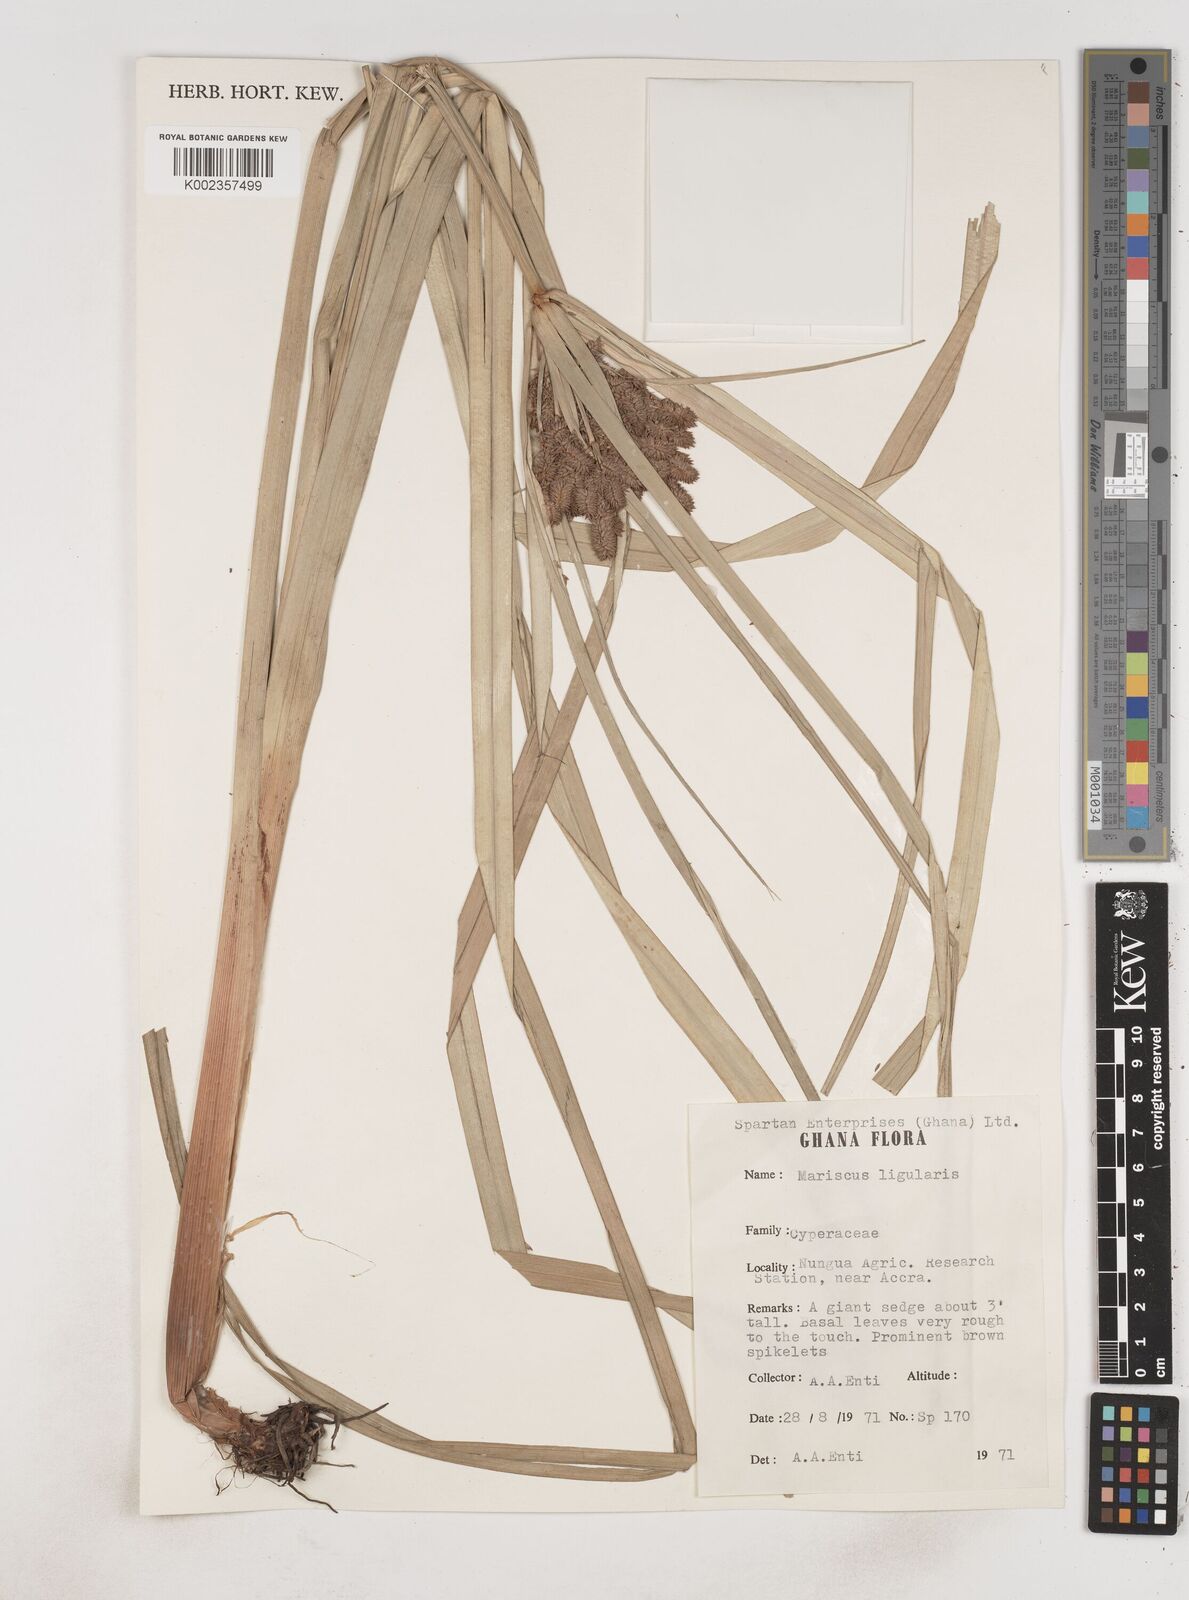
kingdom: Plantae
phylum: Tracheophyta
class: Liliopsida
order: Poales
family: Cyperaceae
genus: Cyperus
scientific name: Cyperus ligularis
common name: Swamp flat sedge
